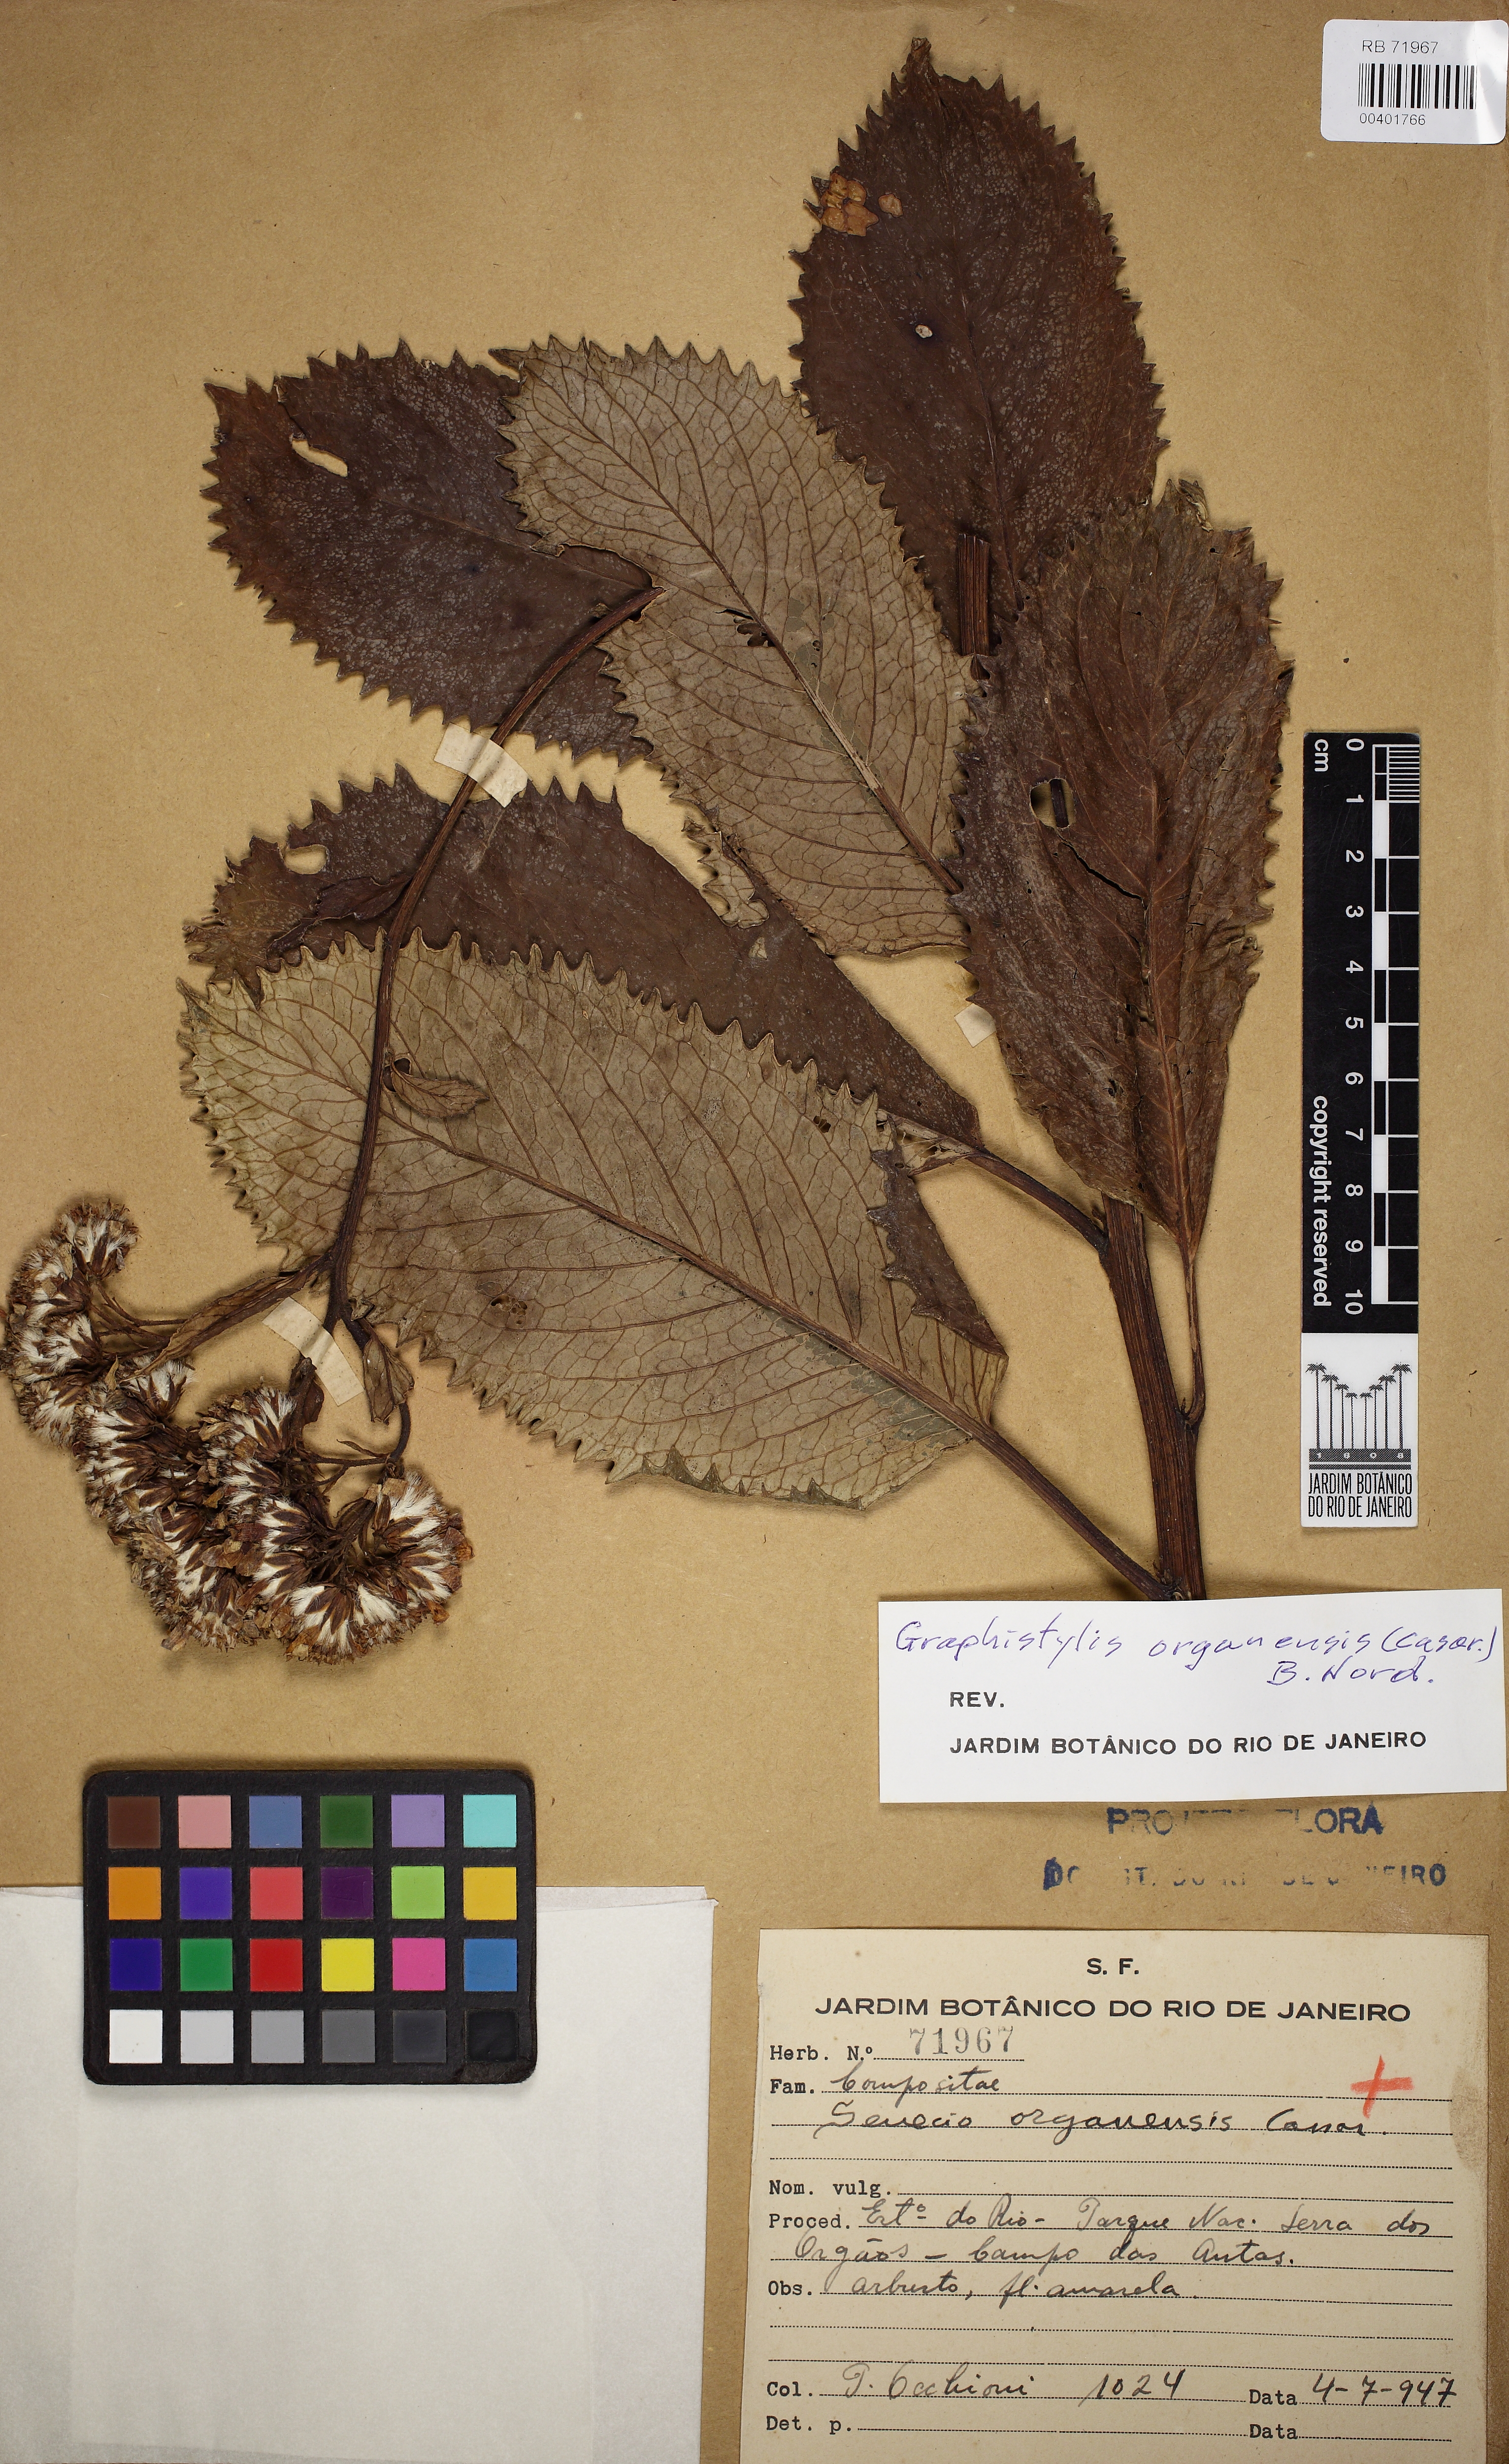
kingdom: Plantae
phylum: Tracheophyta
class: Magnoliopsida
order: Asterales
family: Asteraceae
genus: Graphistylis
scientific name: Graphistylis organensis
